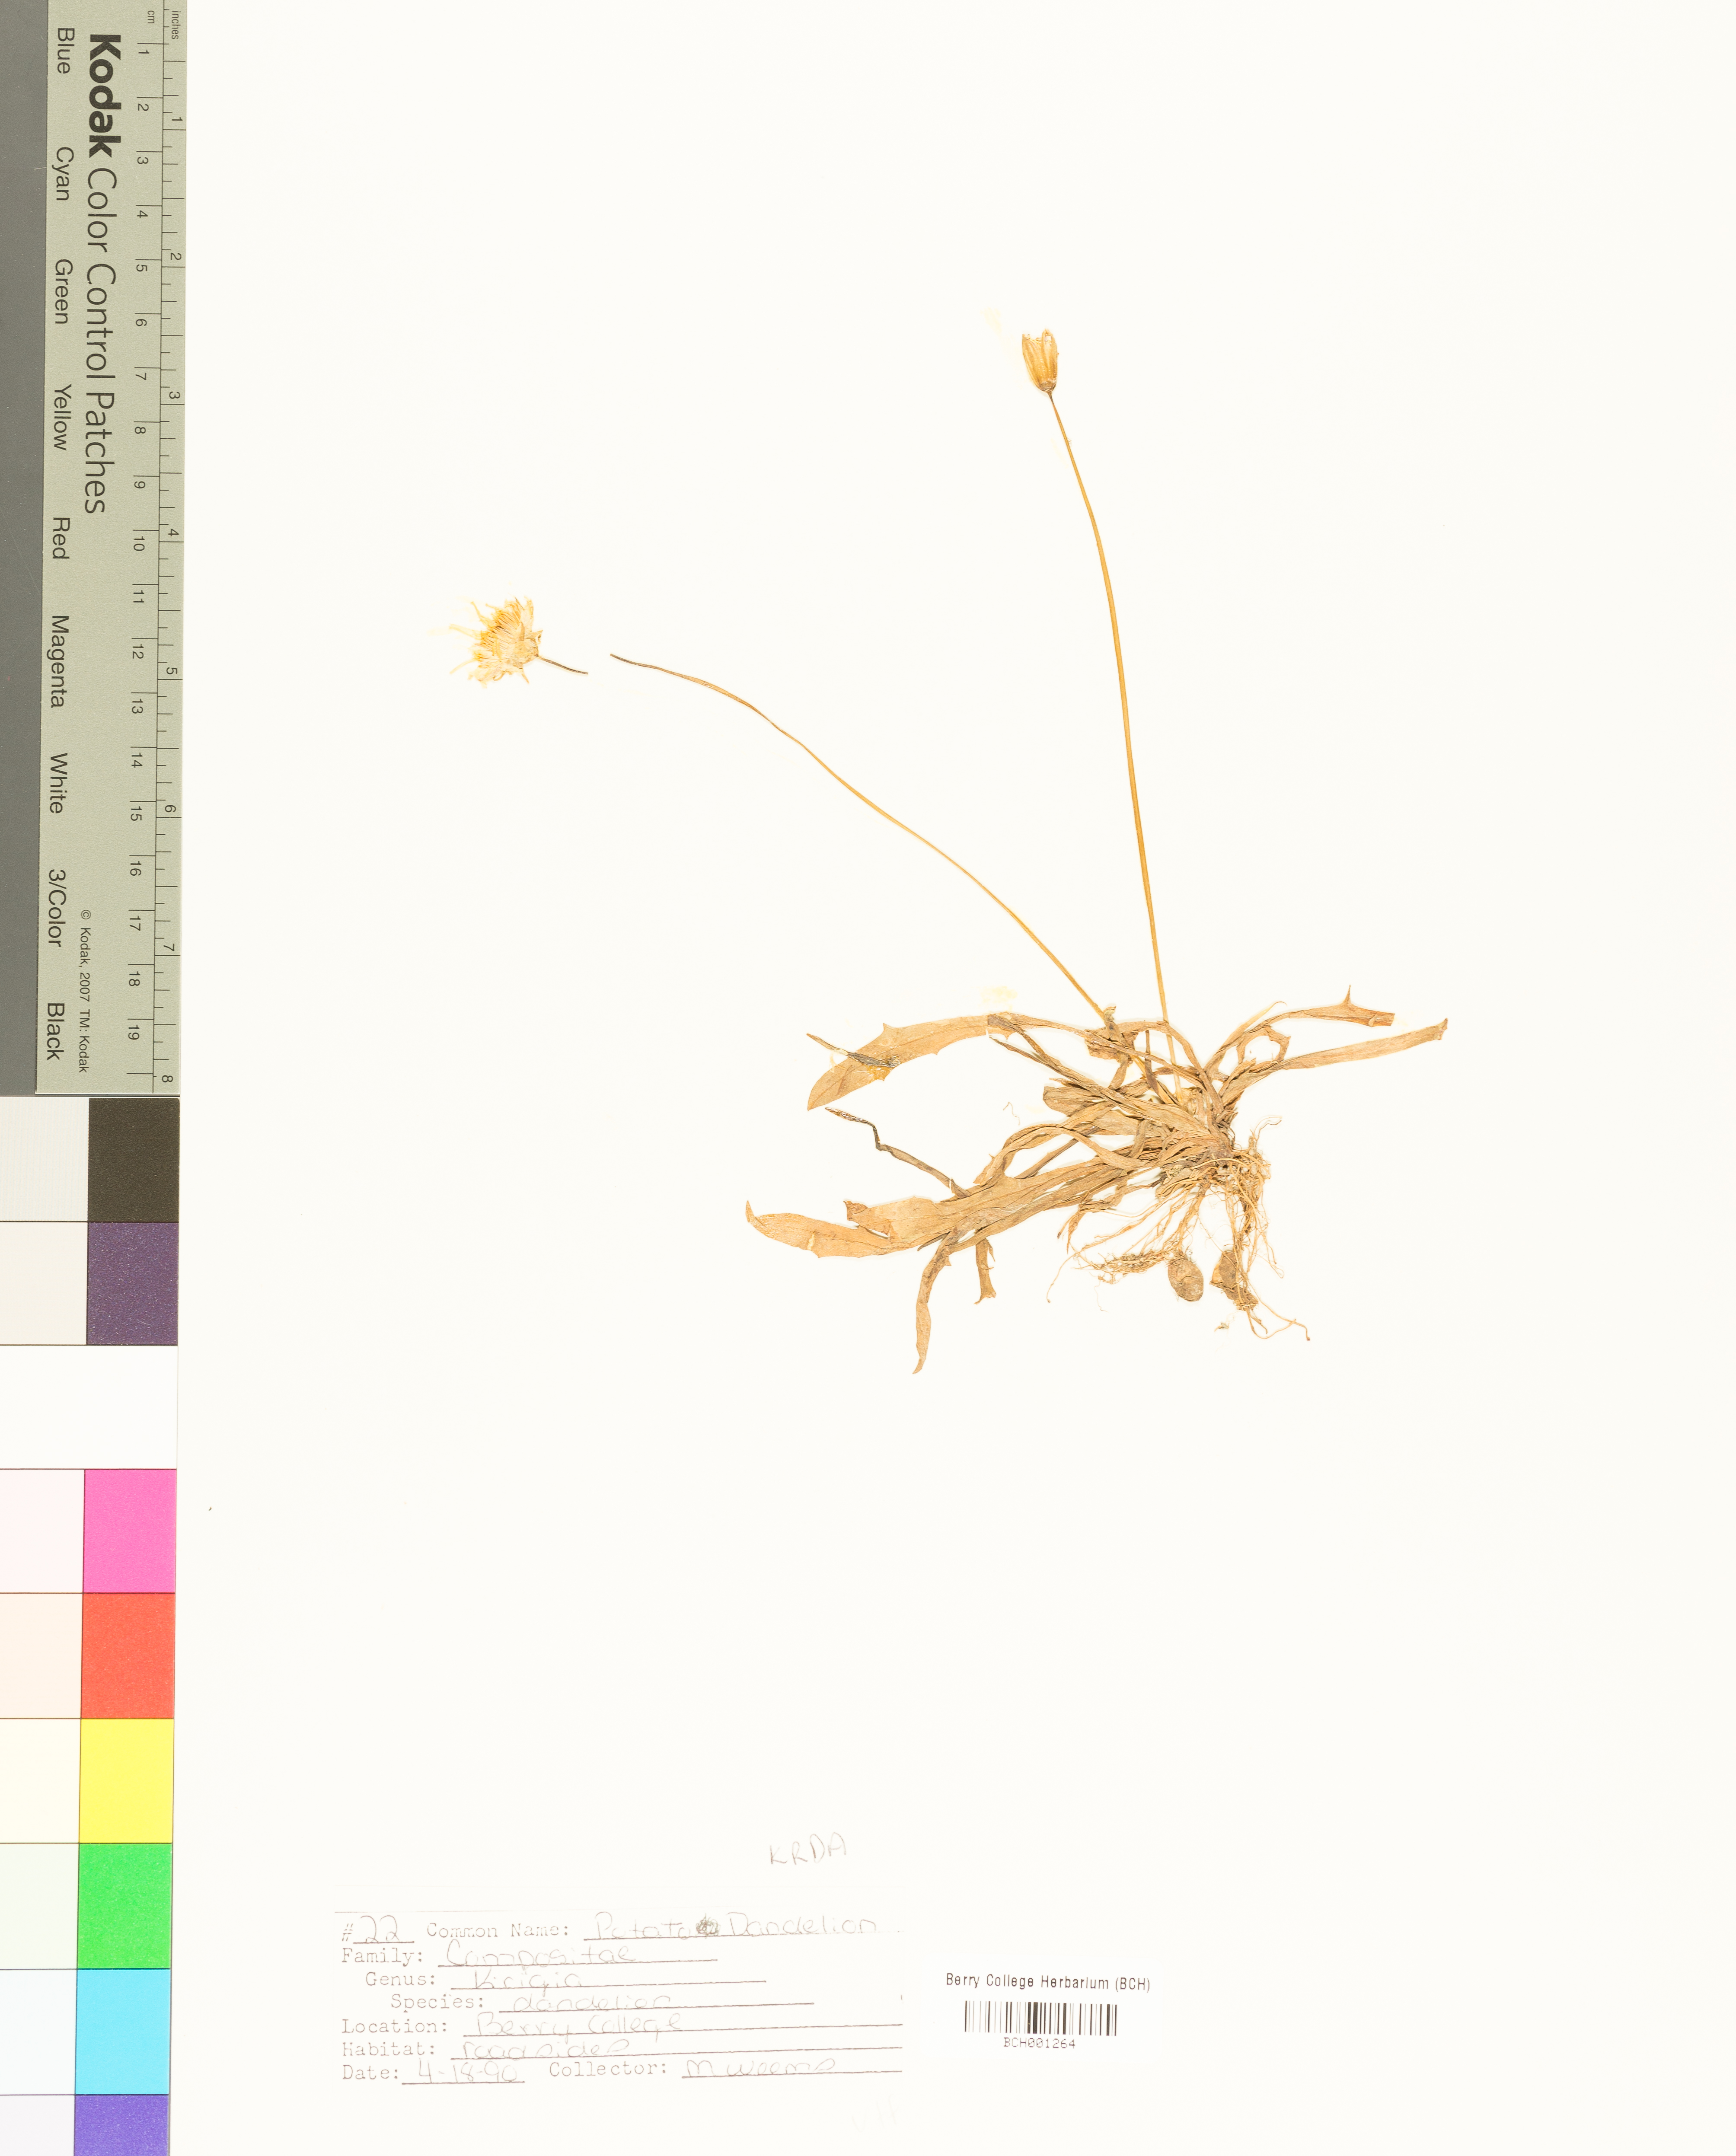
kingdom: Plantae
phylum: Tracheophyta
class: Magnoliopsida
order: Asterales
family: Asteraceae
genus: Krigia
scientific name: Krigia dandelion
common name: Colonial dwarf-dandelion
